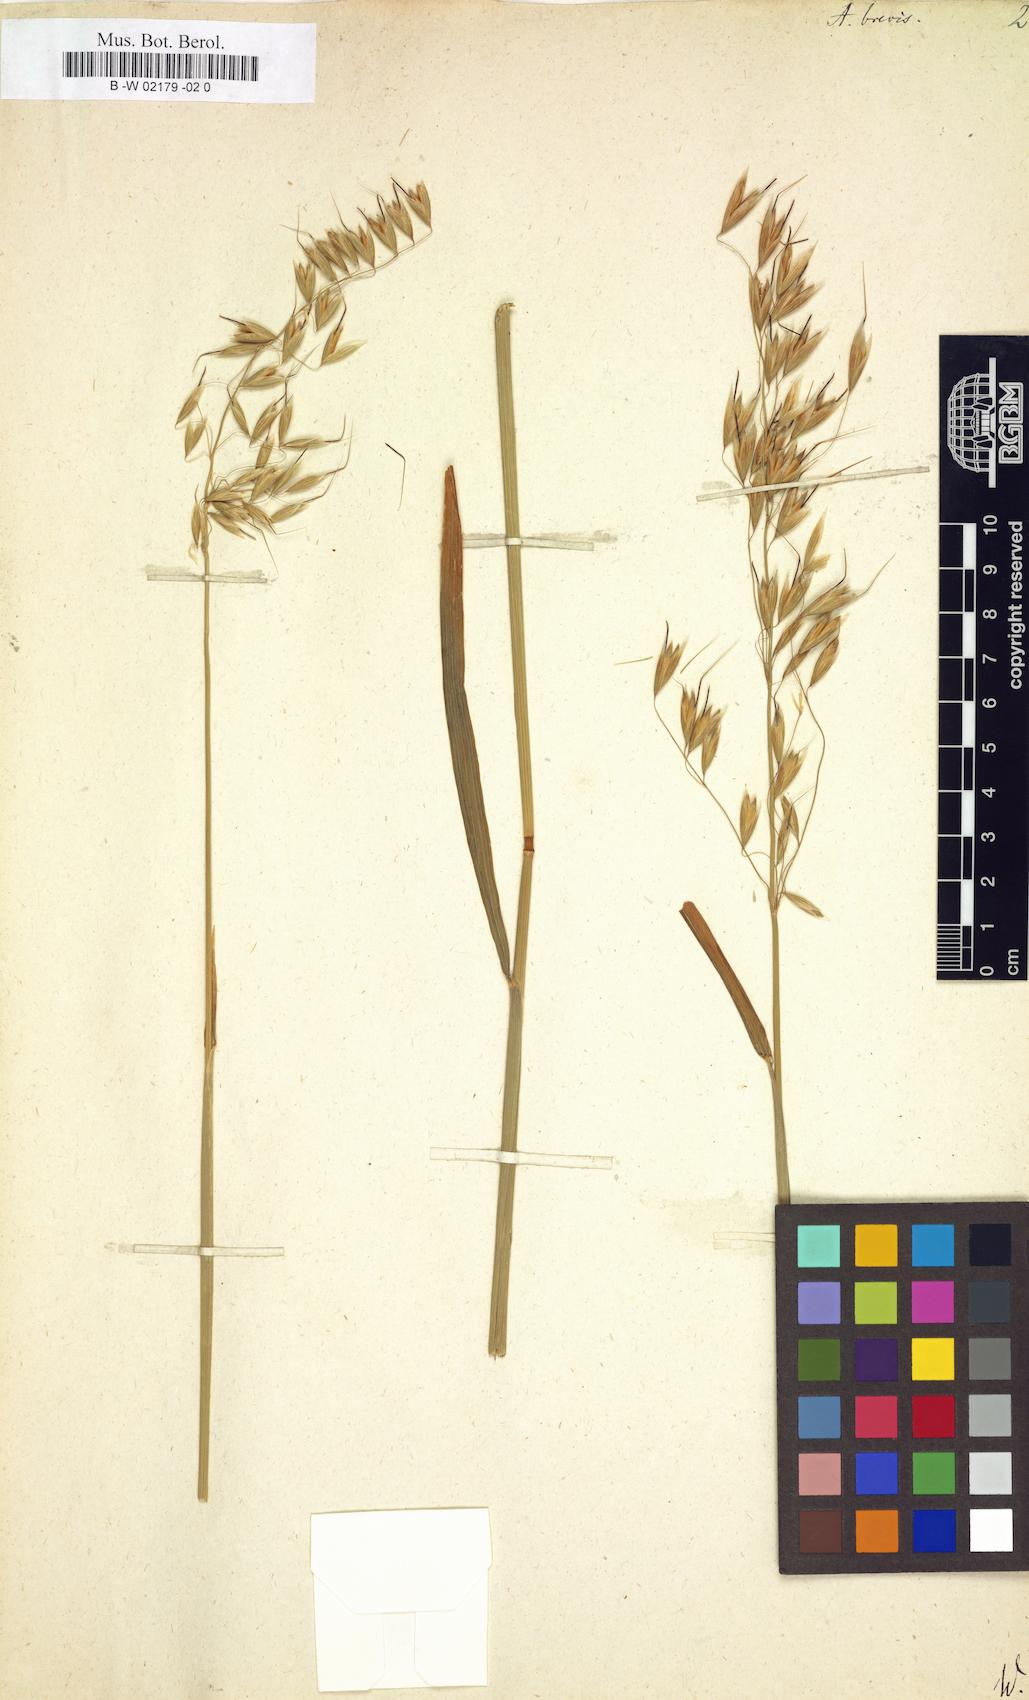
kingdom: Plantae
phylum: Tracheophyta
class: Liliopsida
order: Poales
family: Poaceae
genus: Avena
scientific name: Avena brevis
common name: Short oat
